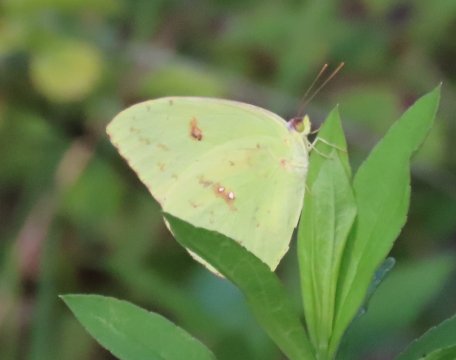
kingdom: Animalia
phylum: Arthropoda
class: Insecta
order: Lepidoptera
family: Pieridae
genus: Phoebis
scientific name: Phoebis sennae
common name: Cloudless Sulphur
